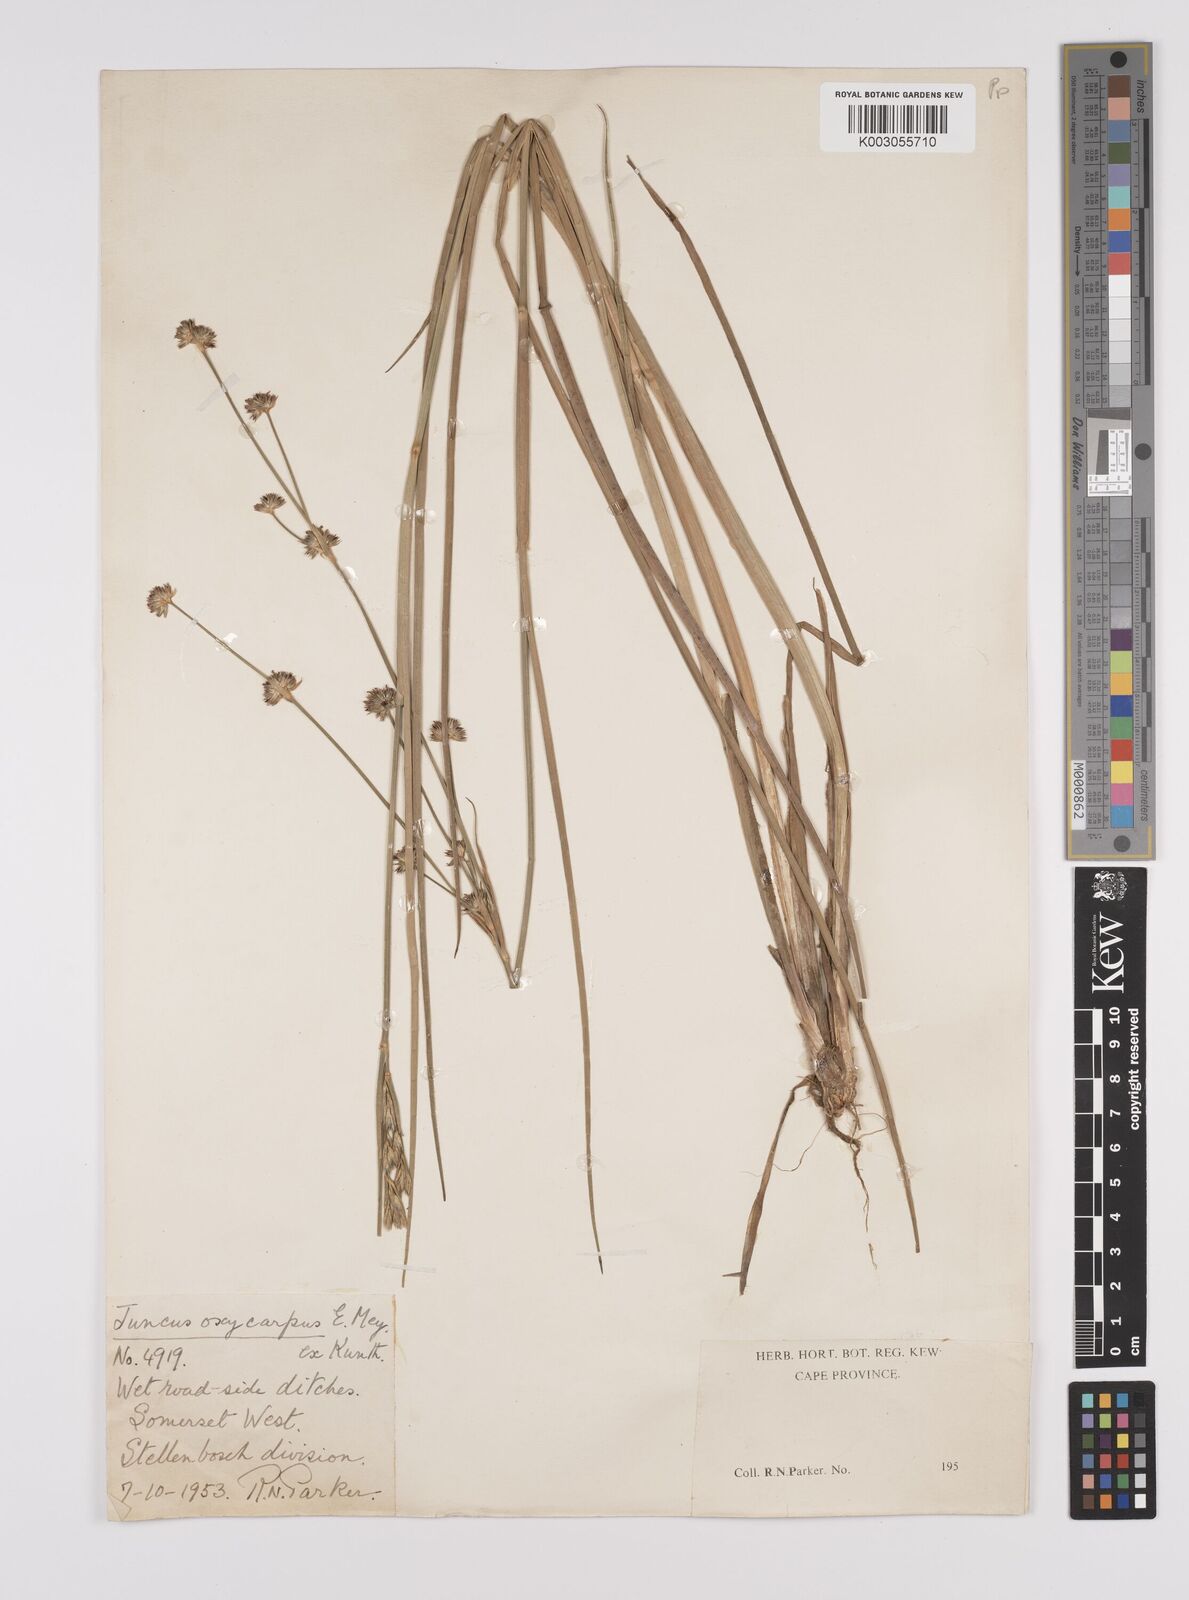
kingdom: Plantae
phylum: Tracheophyta
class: Liliopsida
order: Poales
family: Juncaceae
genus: Juncus
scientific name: Juncus oxycarpus
